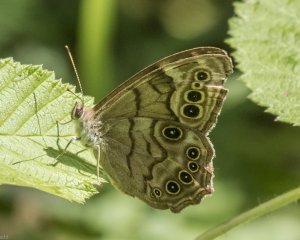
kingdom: Animalia
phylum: Arthropoda
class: Insecta
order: Lepidoptera
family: Nymphalidae
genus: Lethe
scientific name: Lethe anthedon
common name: Northern Pearly-Eye
